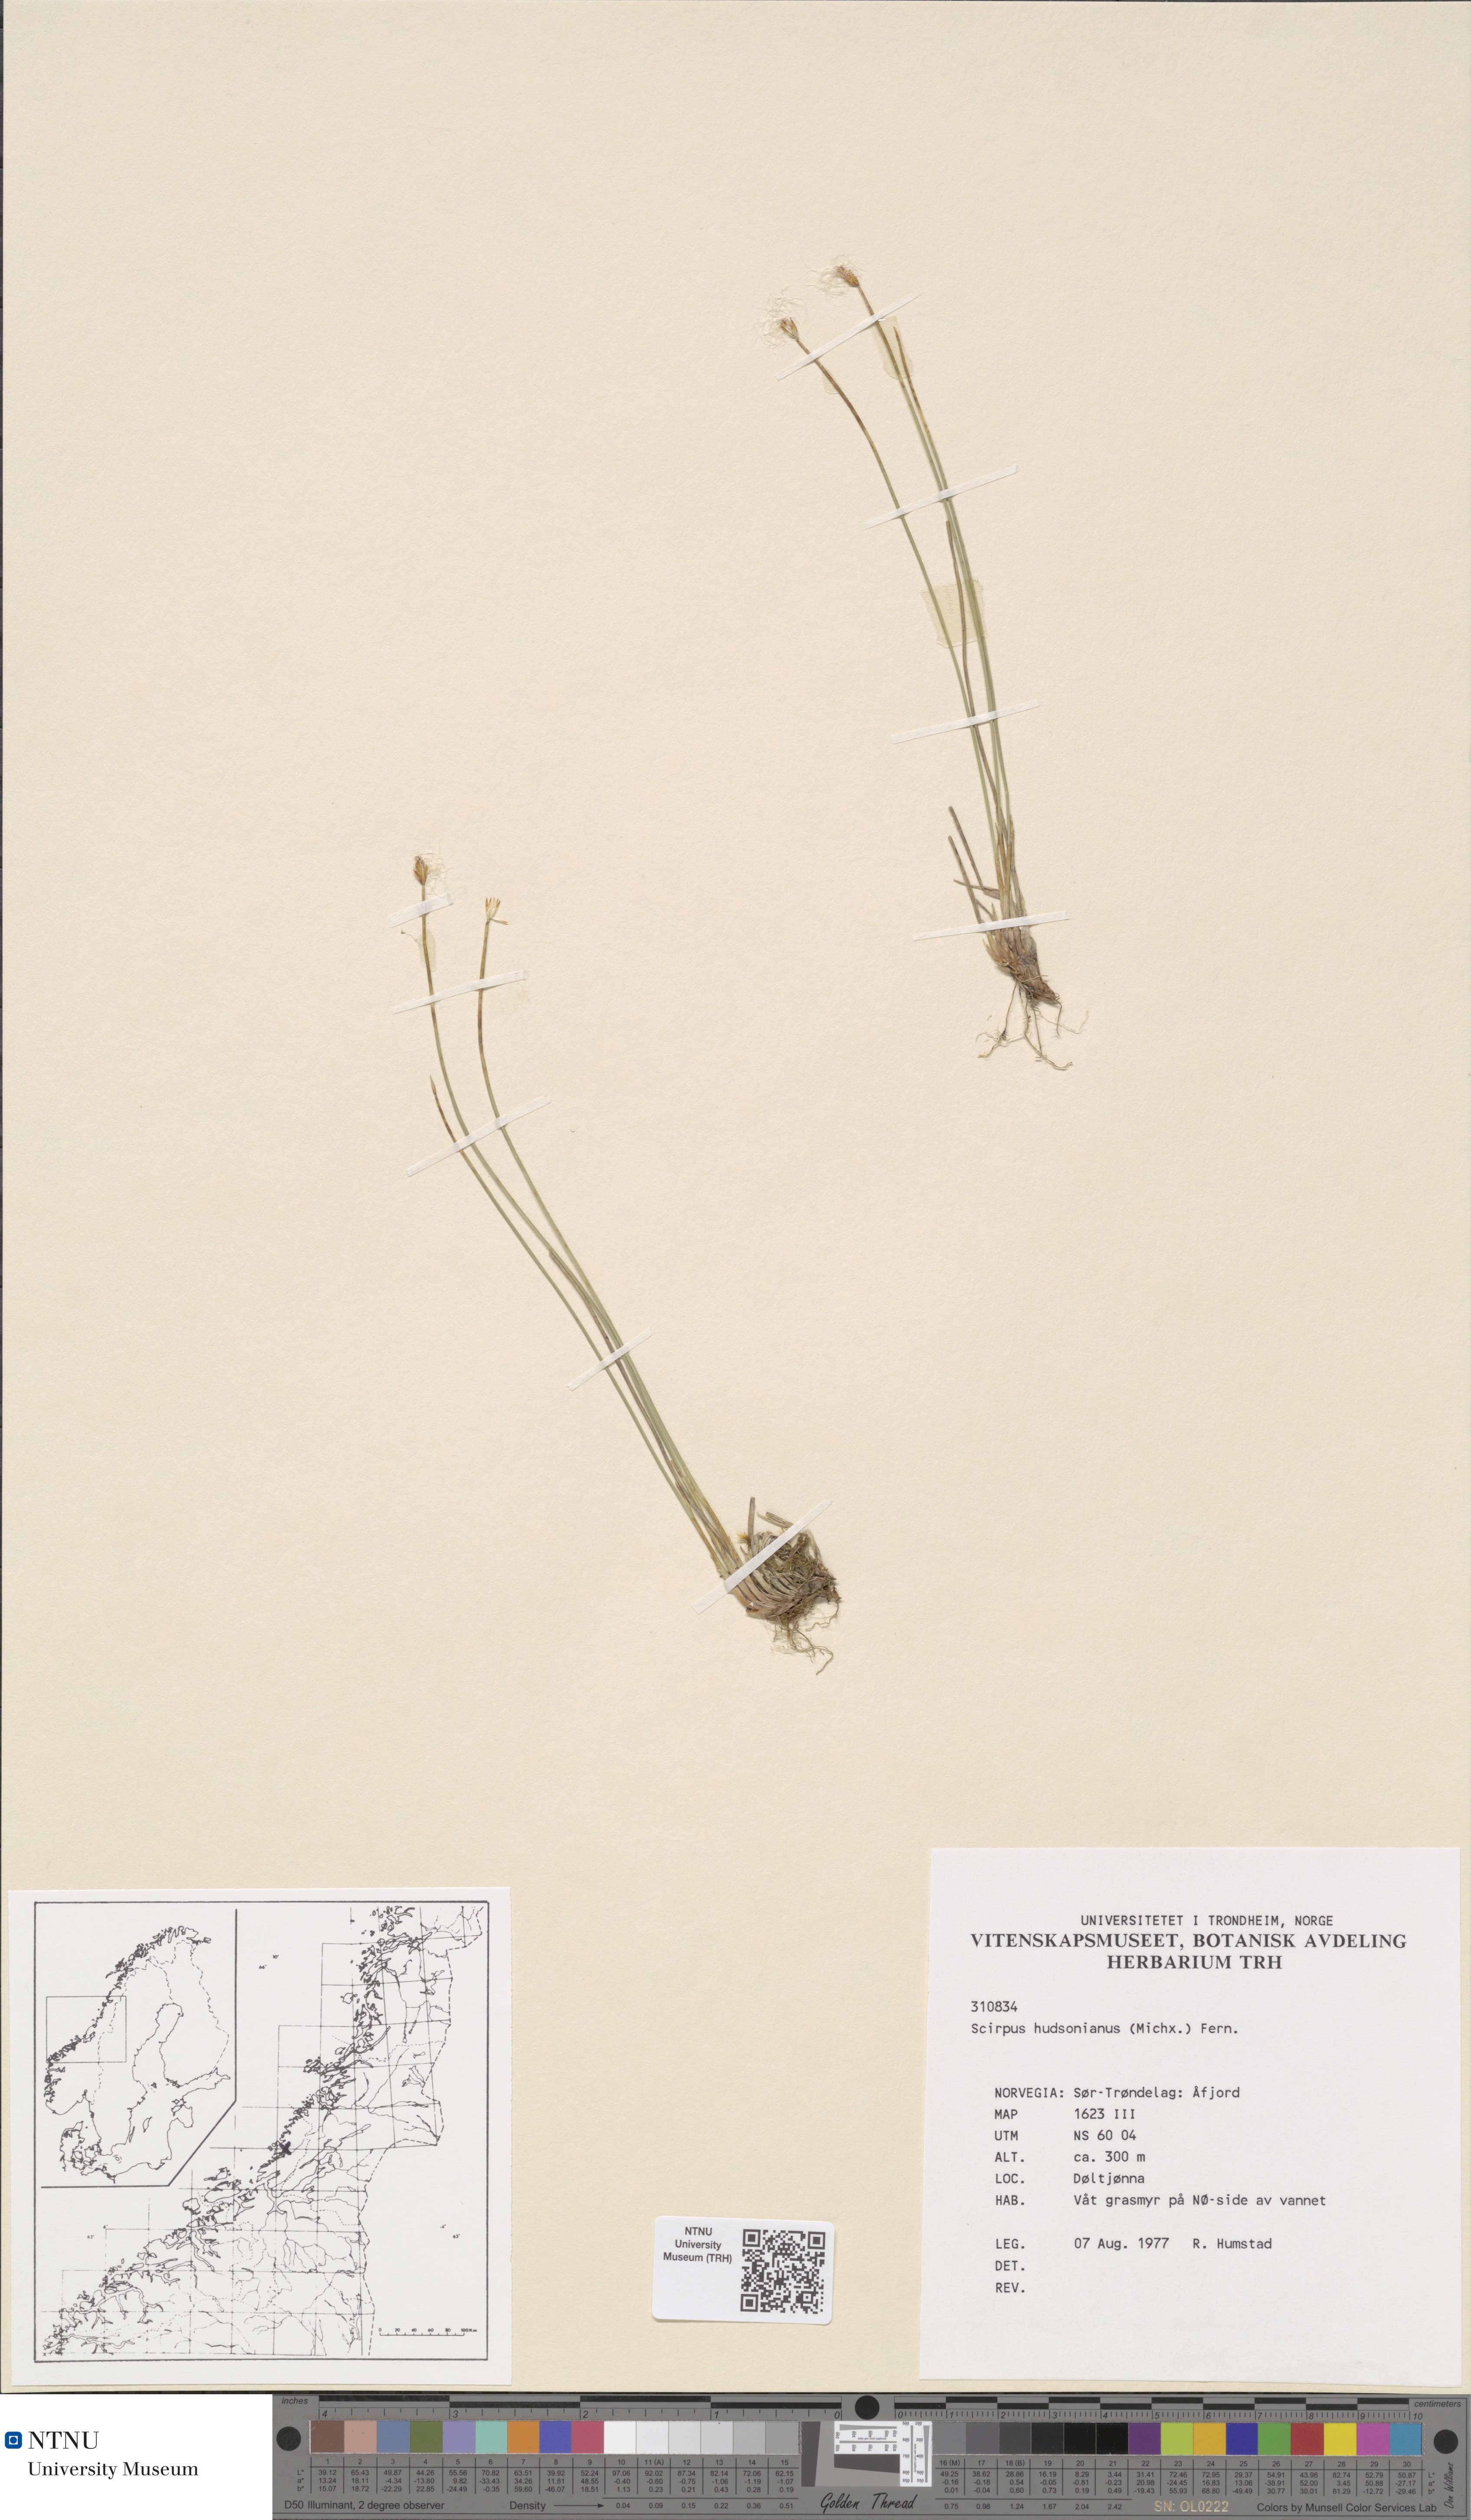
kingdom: Plantae
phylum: Tracheophyta
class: Liliopsida
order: Poales
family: Cyperaceae
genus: Trichophorum
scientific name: Trichophorum alpinum
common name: Alpine bulrush
